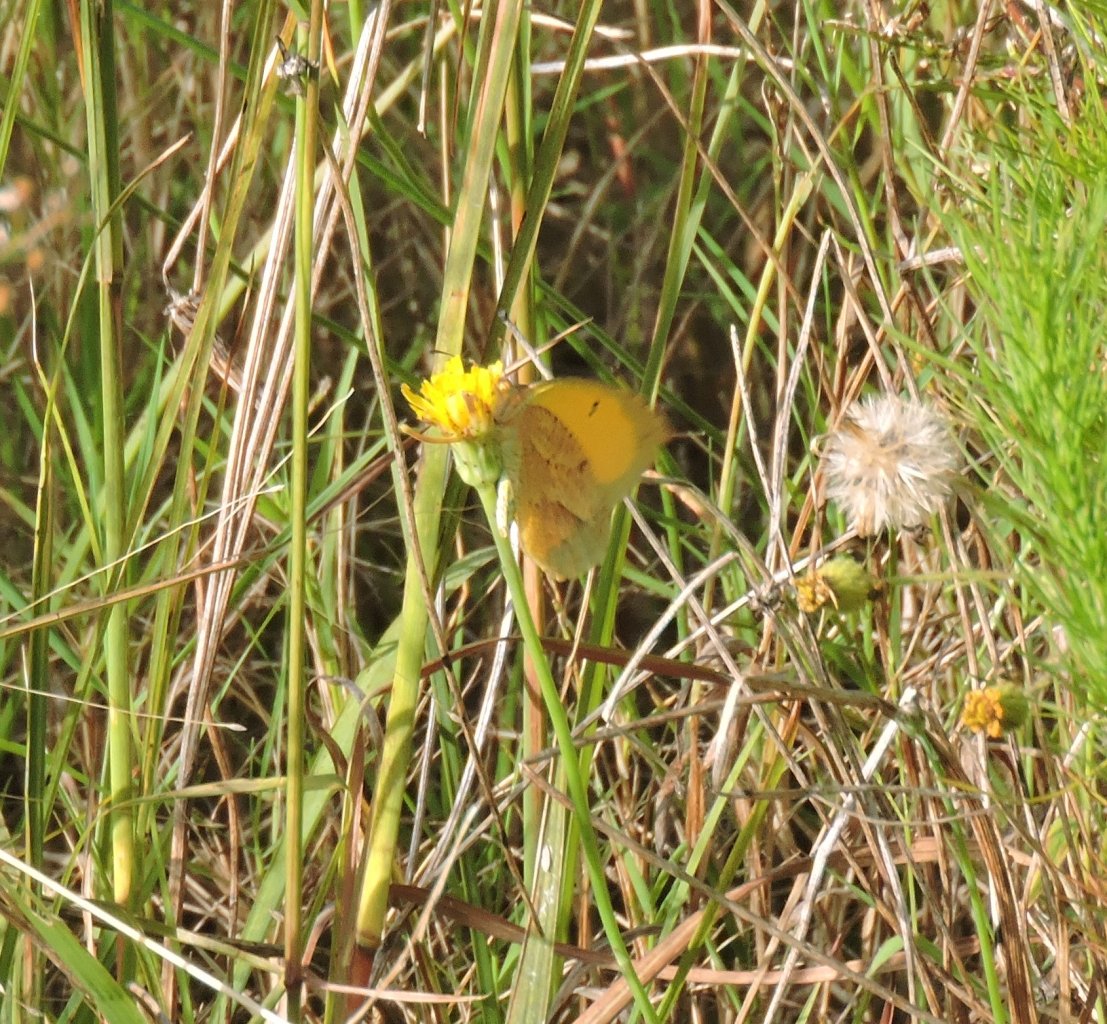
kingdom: Animalia
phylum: Arthropoda
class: Insecta
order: Lepidoptera
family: Pieridae
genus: Abaeis
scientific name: Abaeis nicippe
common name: Sleepy Orange
